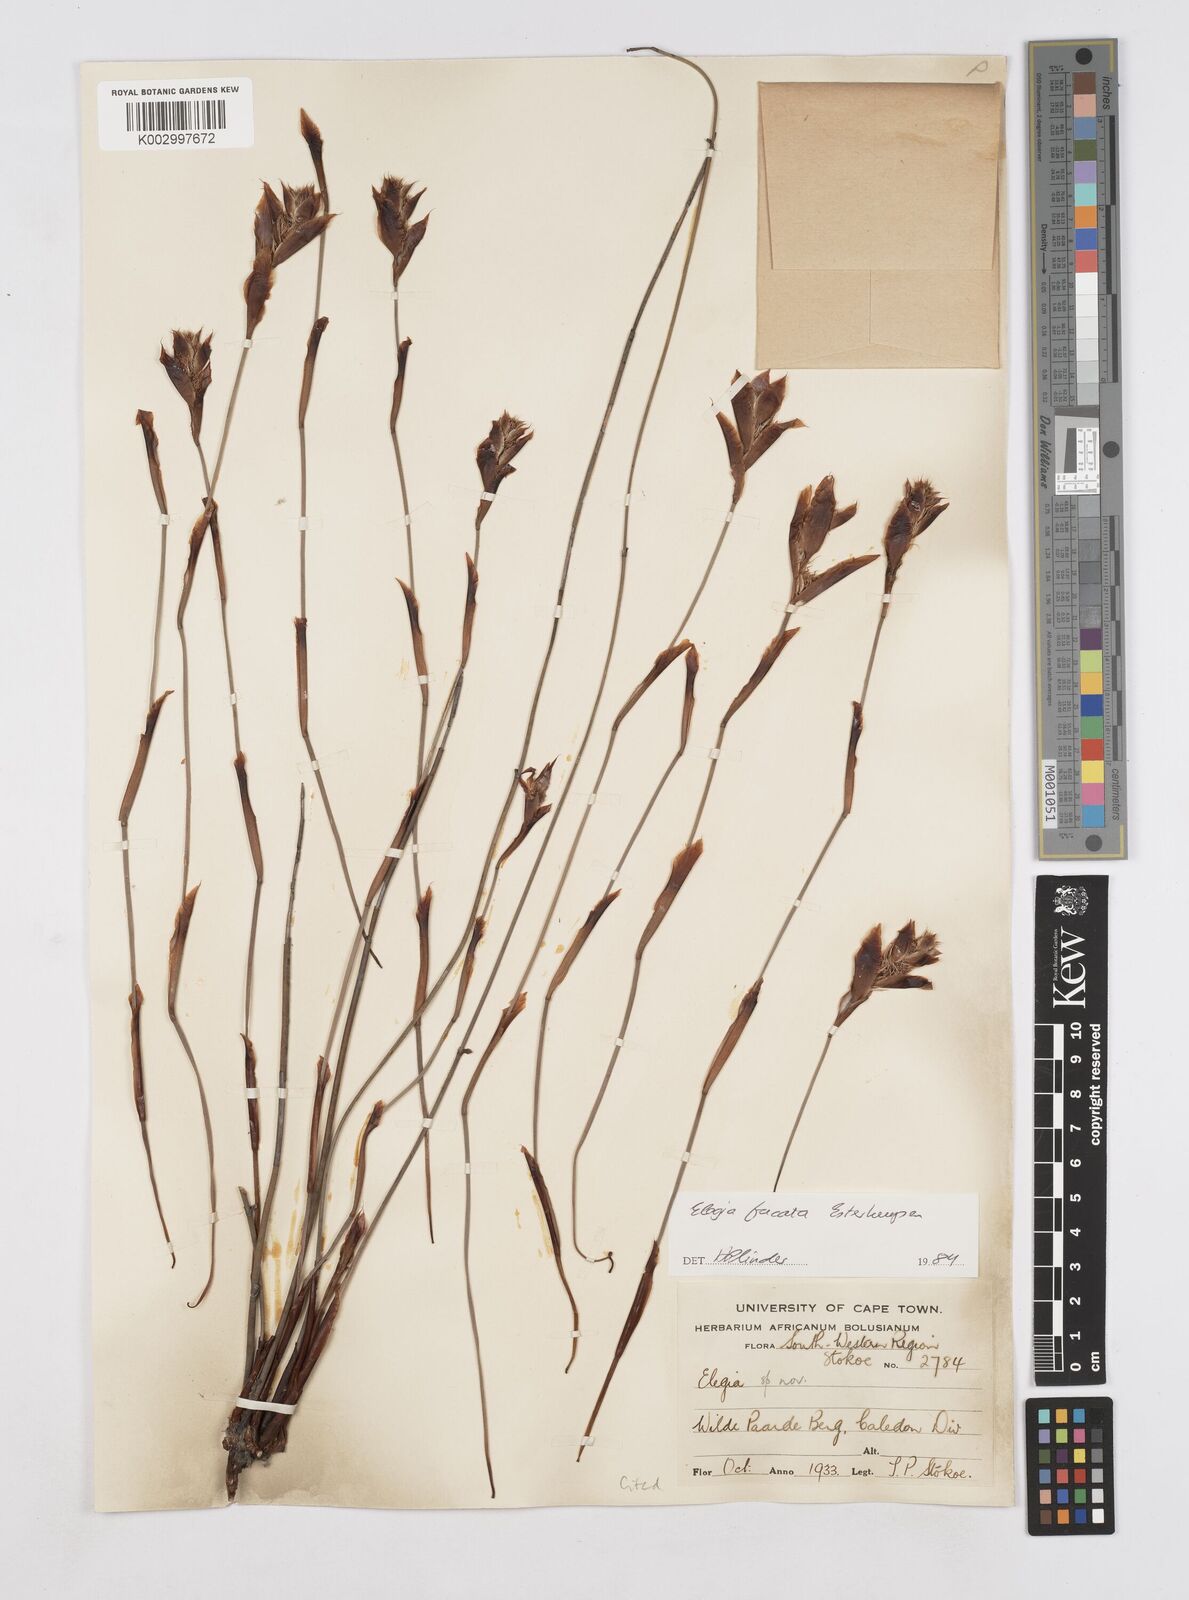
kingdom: Plantae
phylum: Tracheophyta
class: Liliopsida
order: Poales
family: Restionaceae
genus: Elegia
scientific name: Elegia fucata
